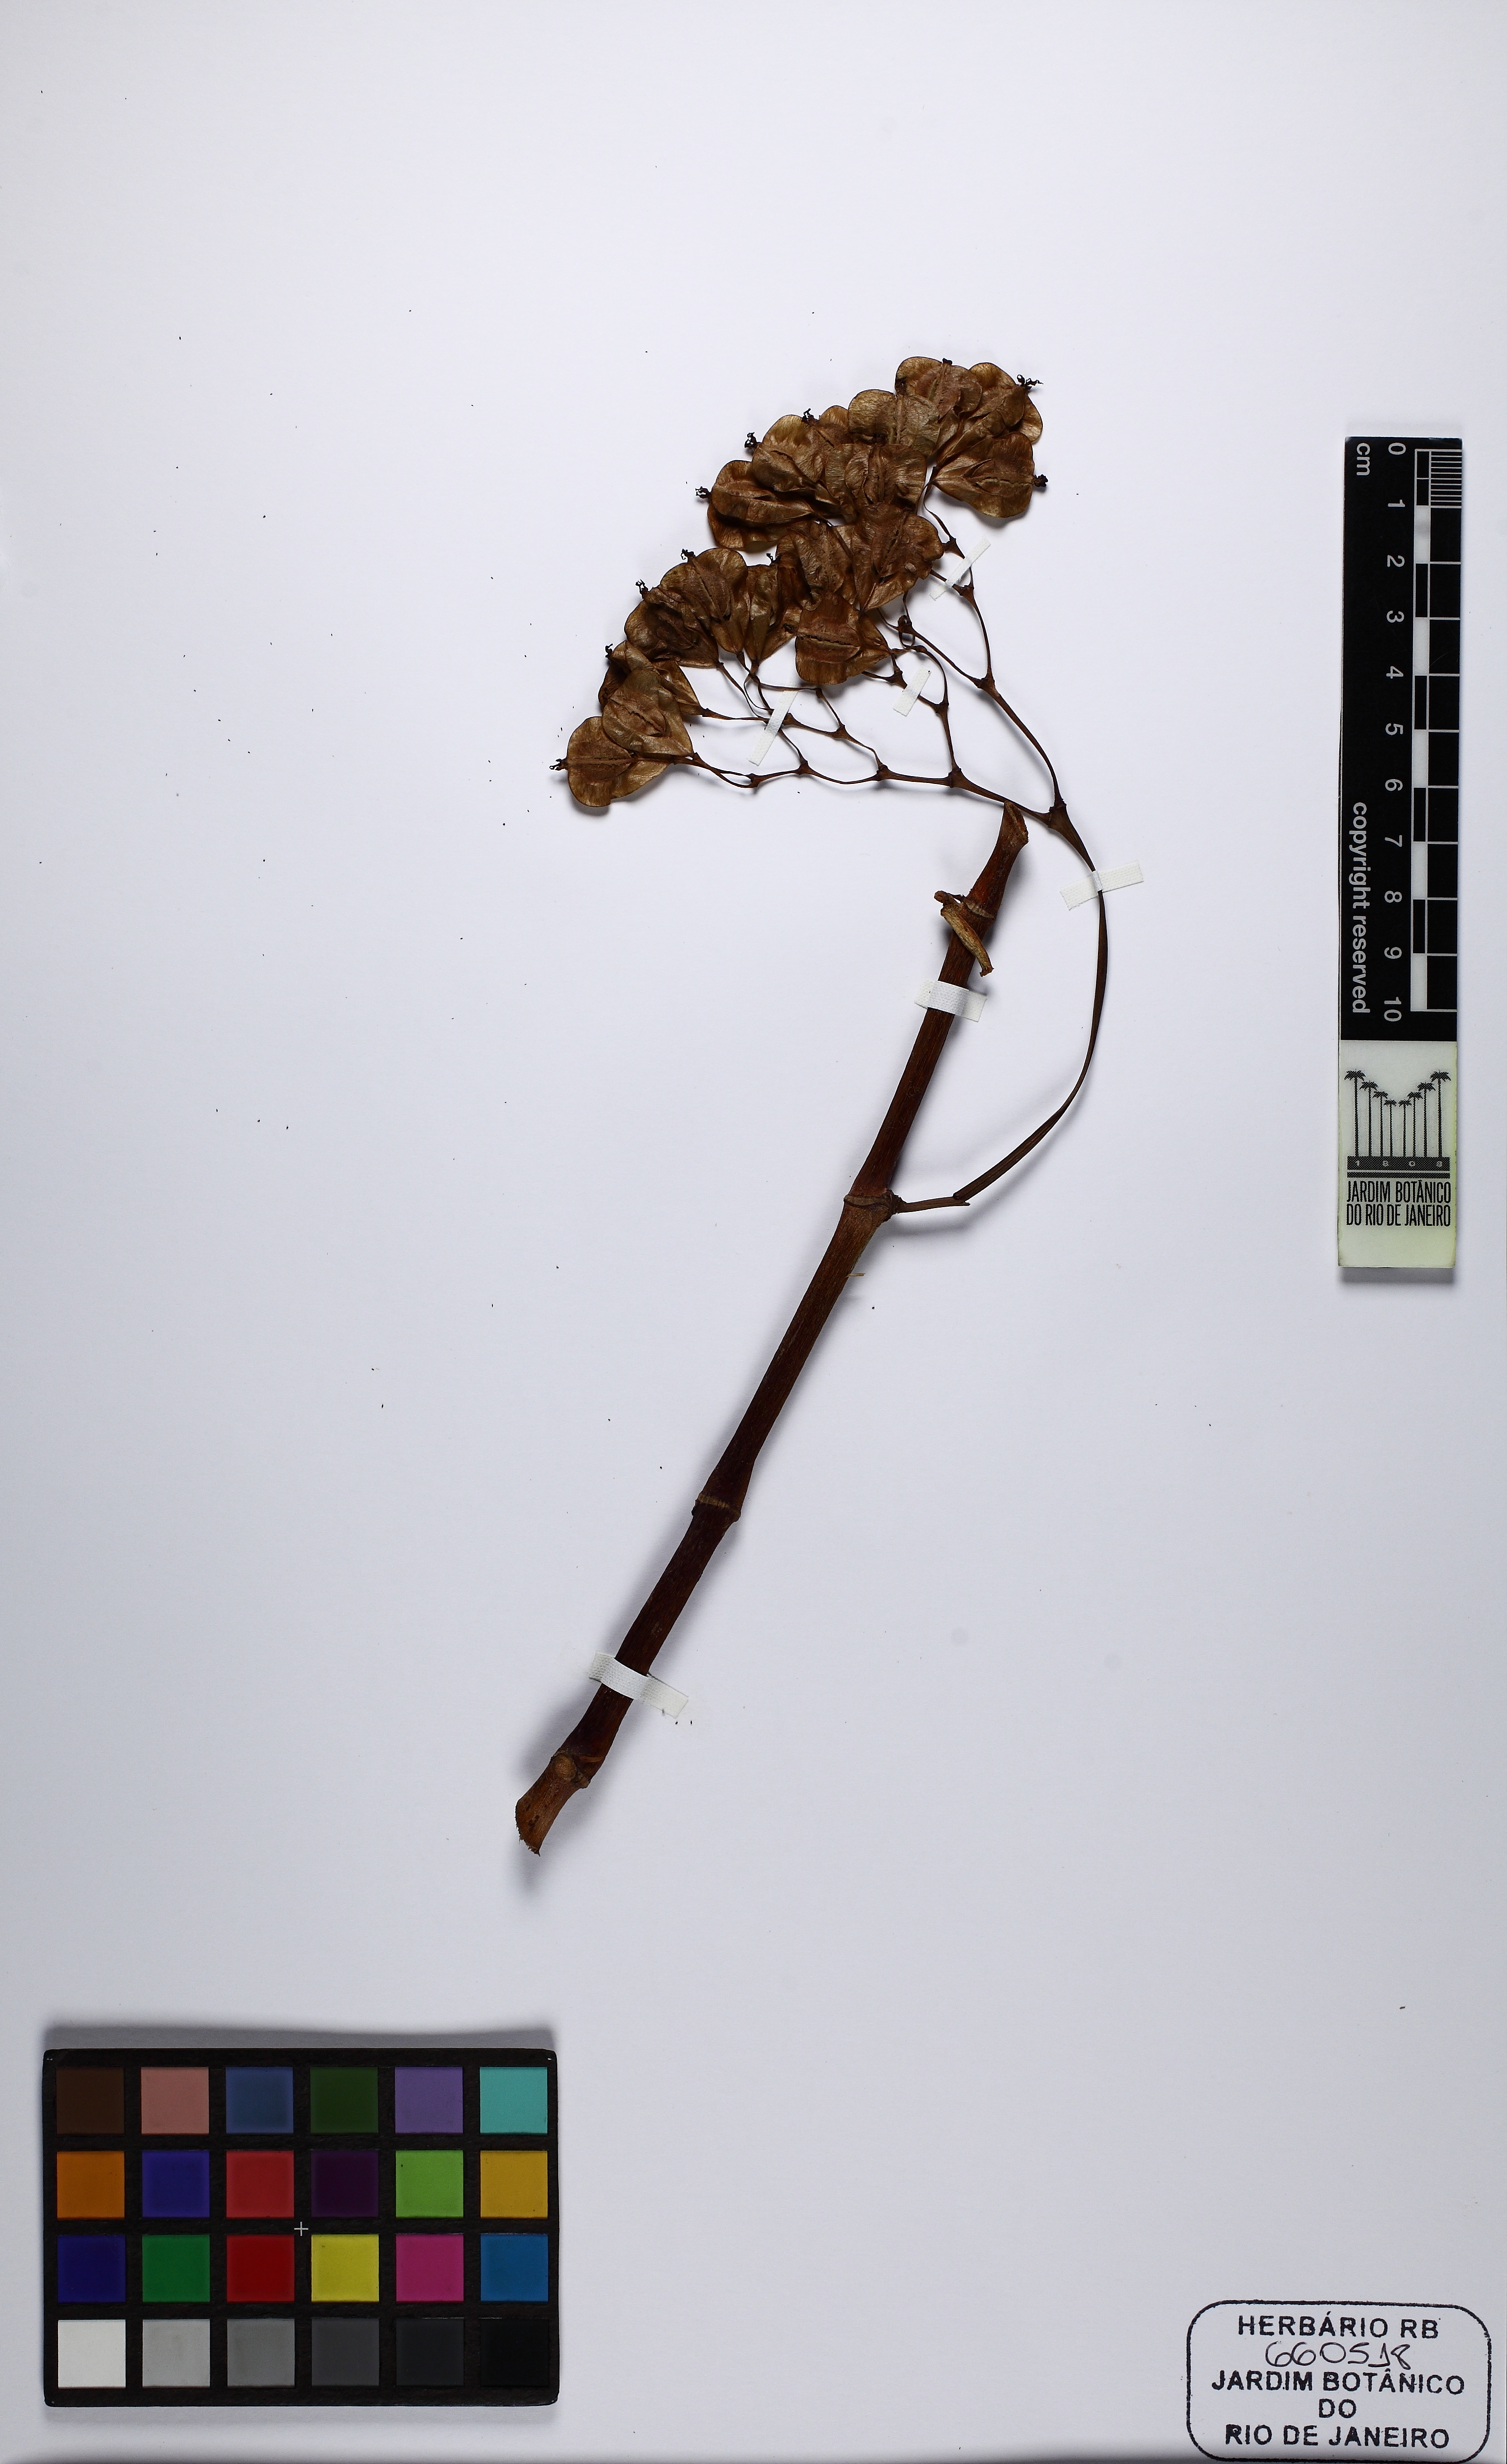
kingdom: Plantae
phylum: Tracheophyta
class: Magnoliopsida
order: Cucurbitales
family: Begoniaceae
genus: Begonia
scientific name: Begonia maculata
